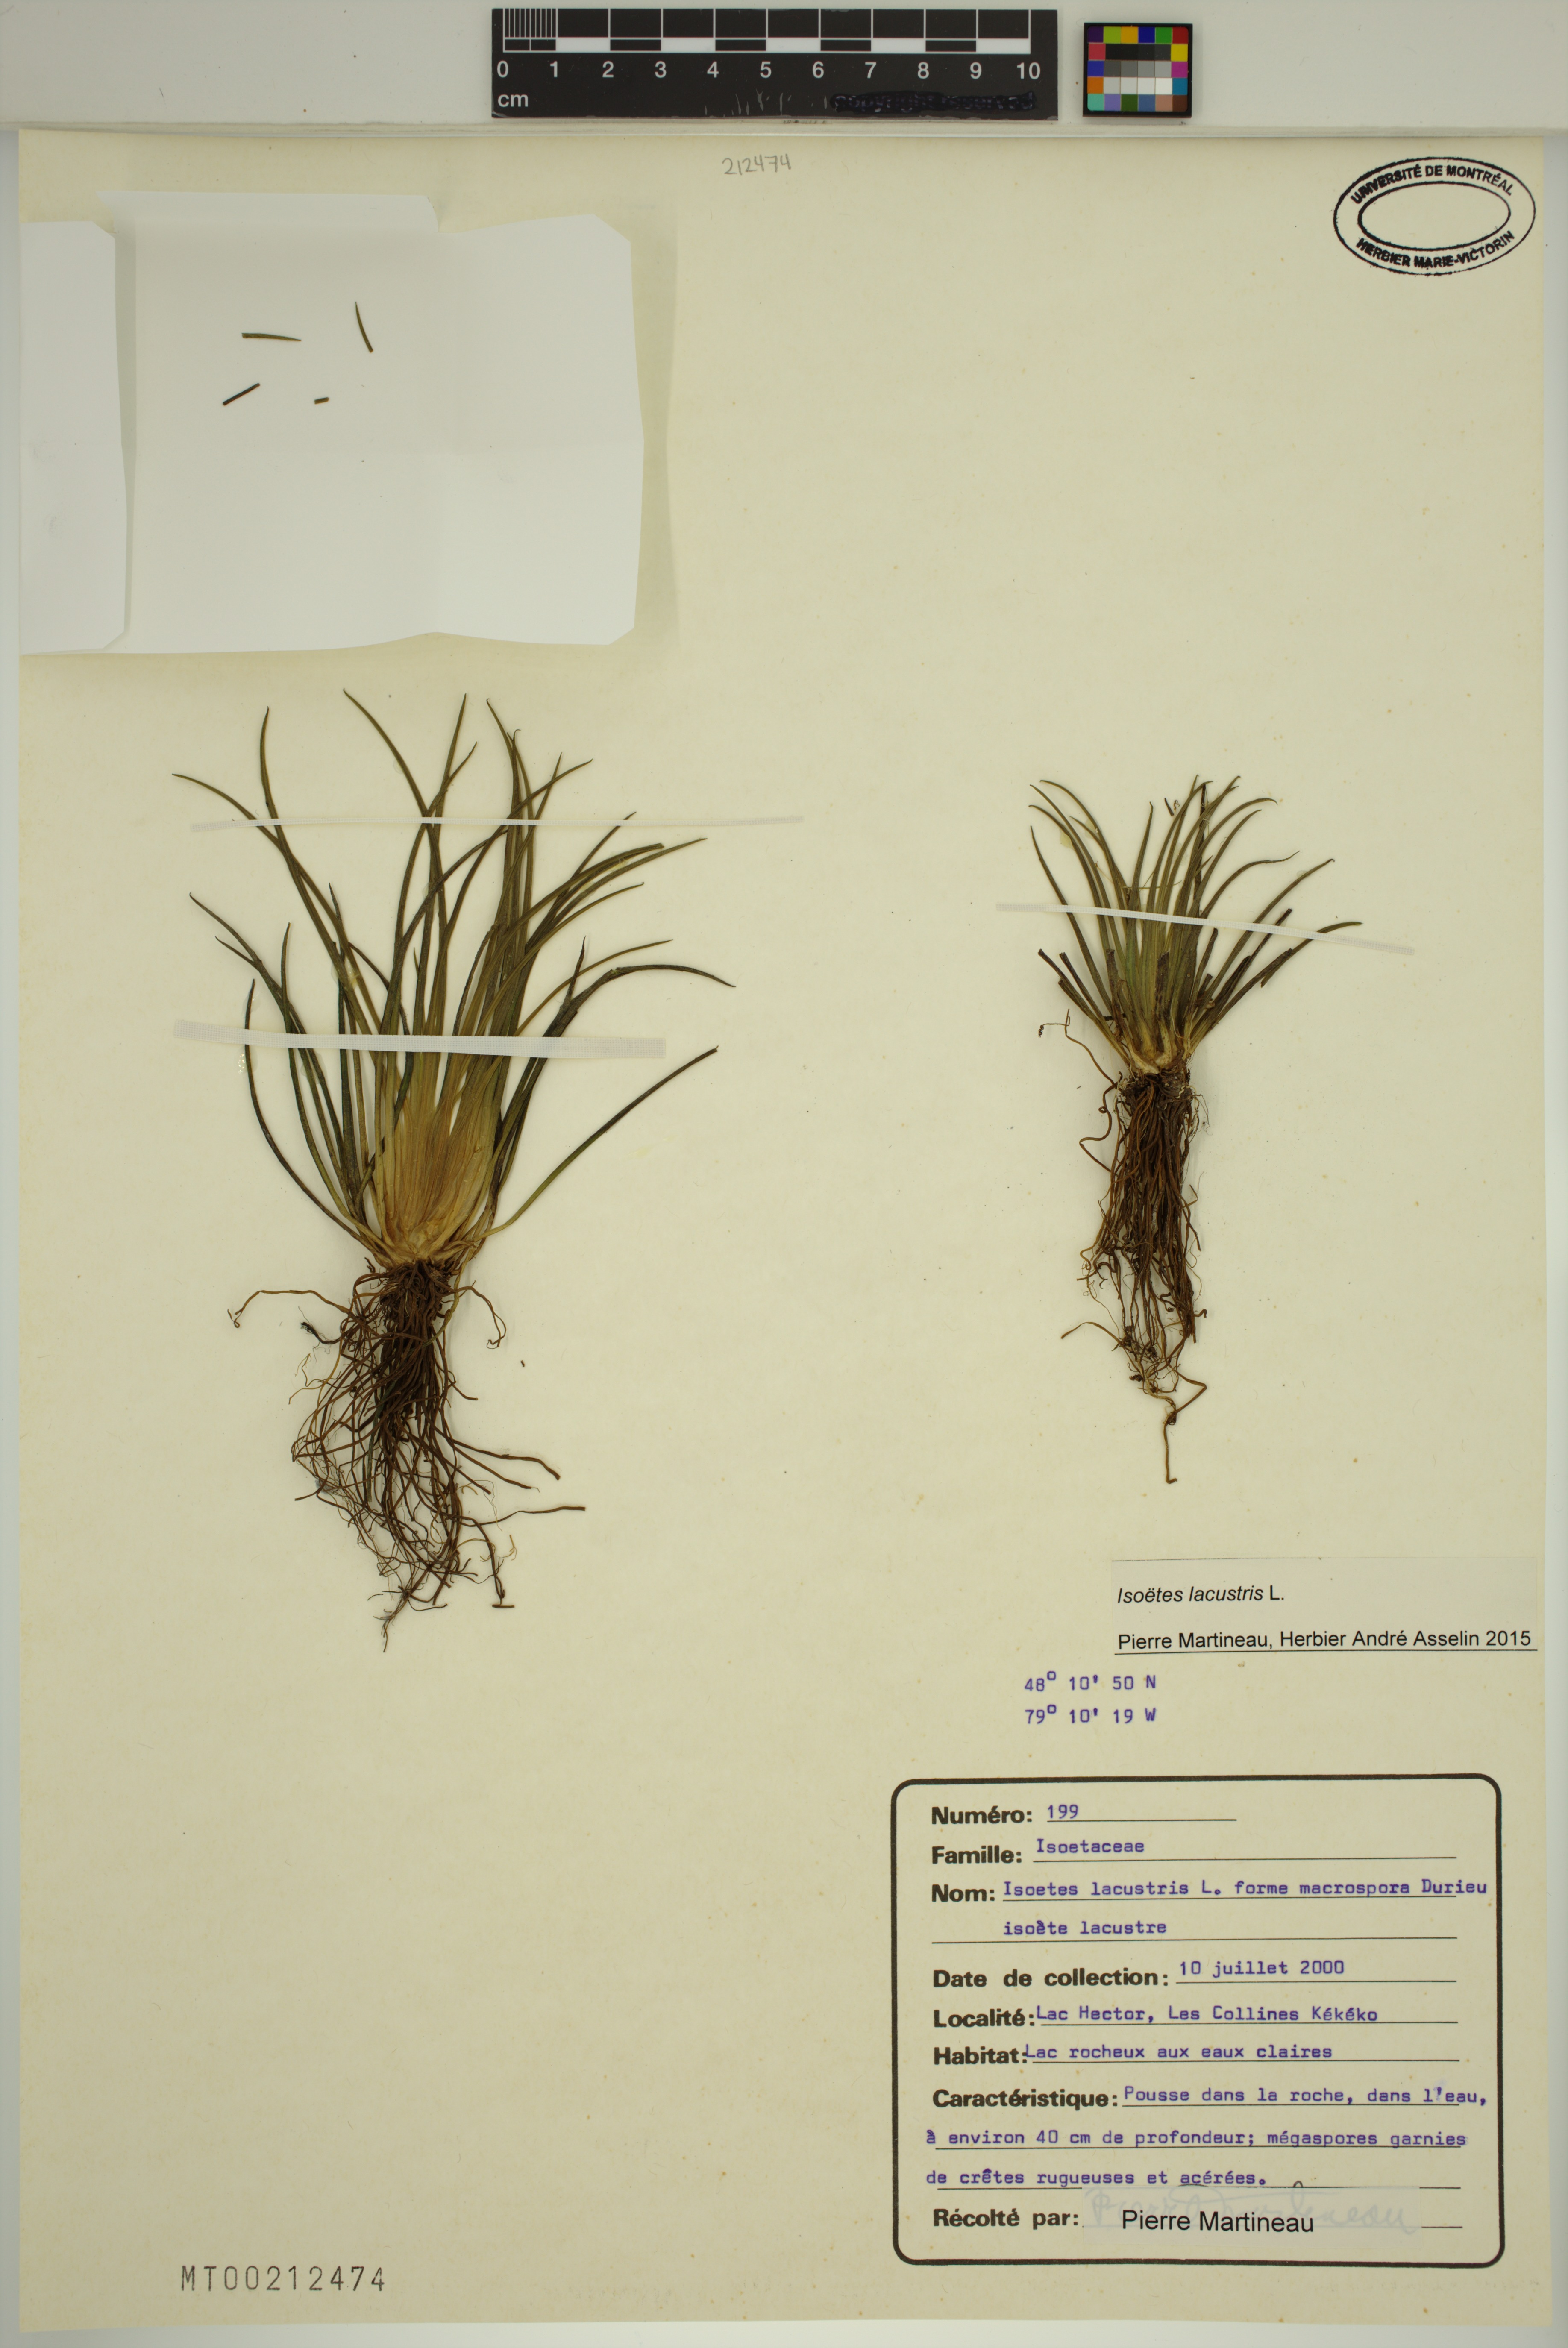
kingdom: Plantae
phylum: Tracheophyta
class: Lycopodiopsida
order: Isoetales
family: Isoetaceae
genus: Isoetes
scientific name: Isoetes lacustris
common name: Common quillwort
